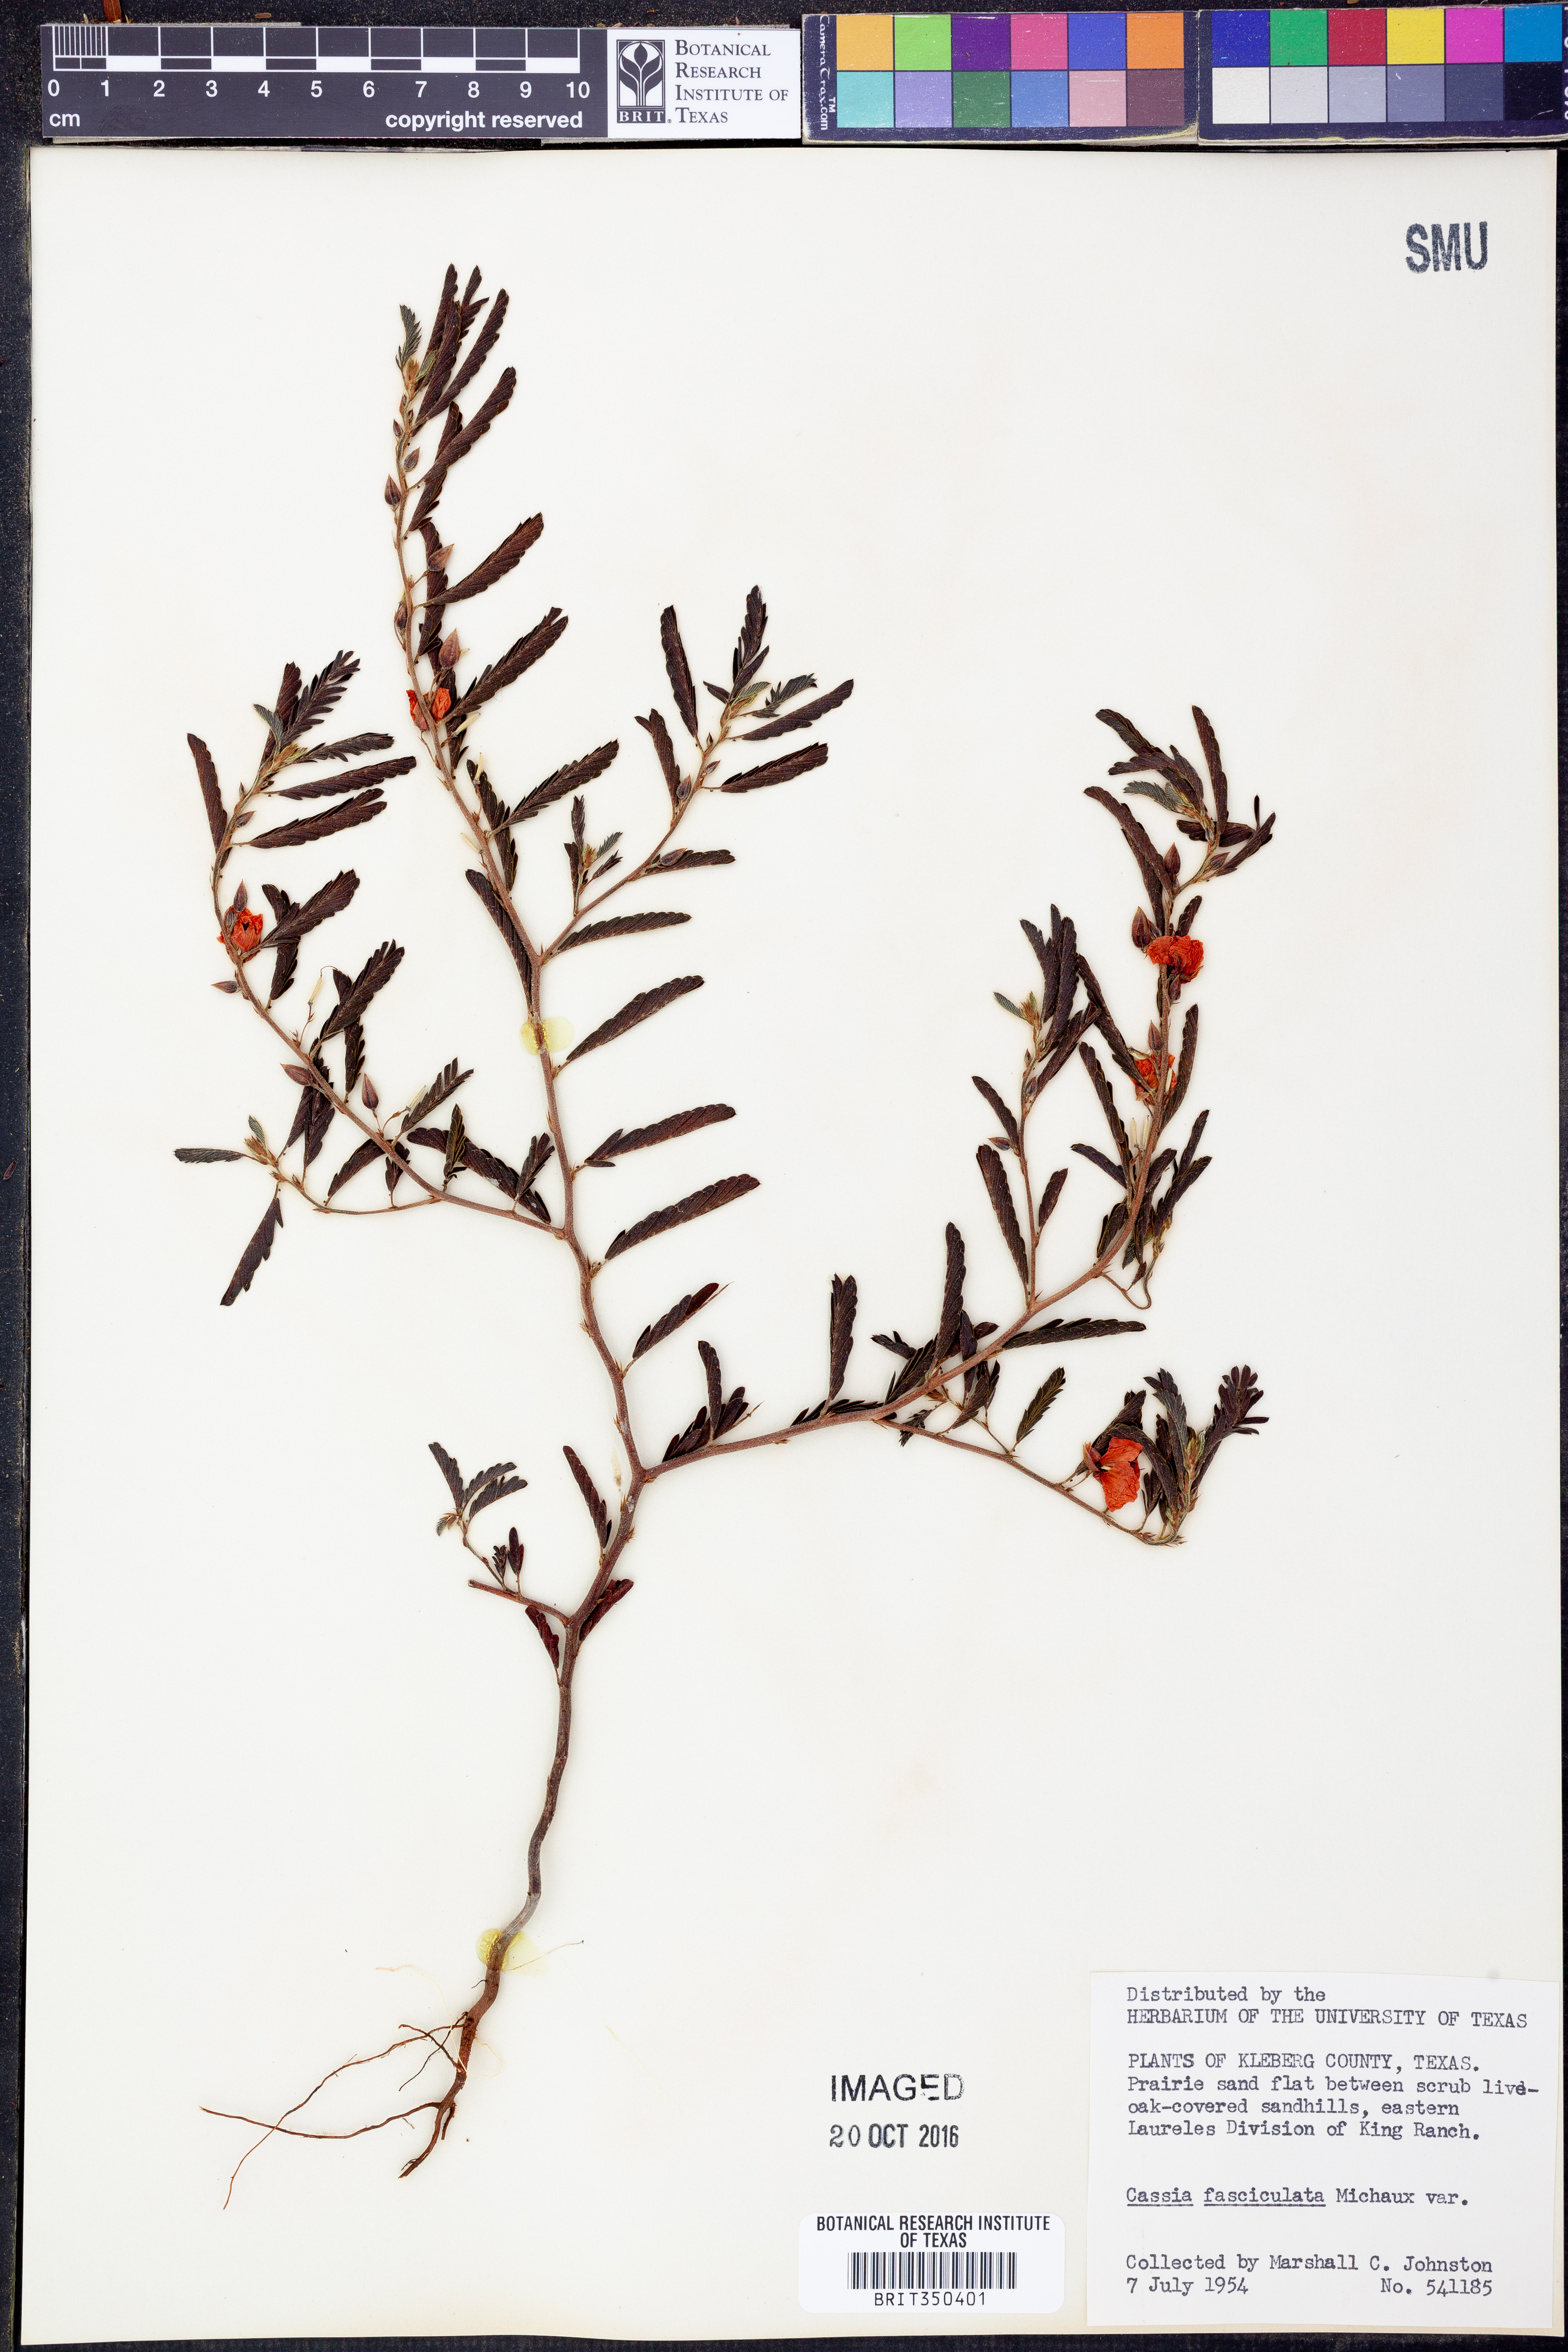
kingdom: Plantae
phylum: Tracheophyta
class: Magnoliopsida
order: Fabales
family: Fabaceae
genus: Chamaecrista
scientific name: Chamaecrista fasciculata
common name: Golden cassia
